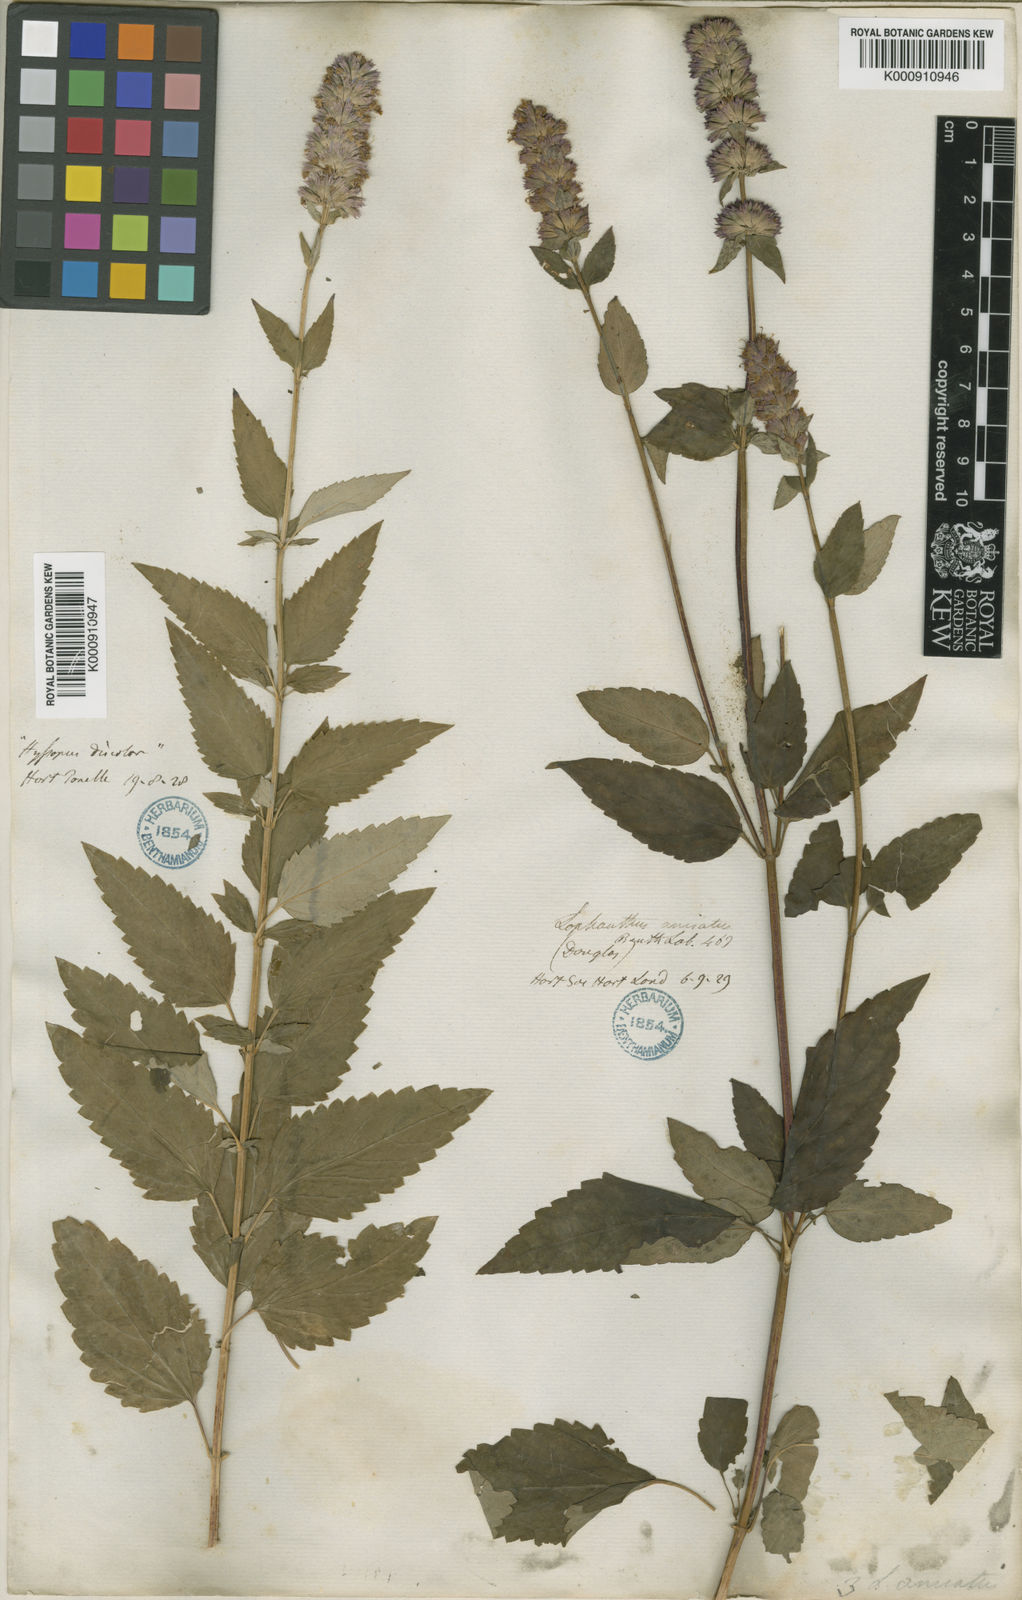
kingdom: Plantae
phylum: Tracheophyta
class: Magnoliopsida
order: Lamiales
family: Lamiaceae
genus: Agastache
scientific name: Agastache foeniculum
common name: Anise hyssop
